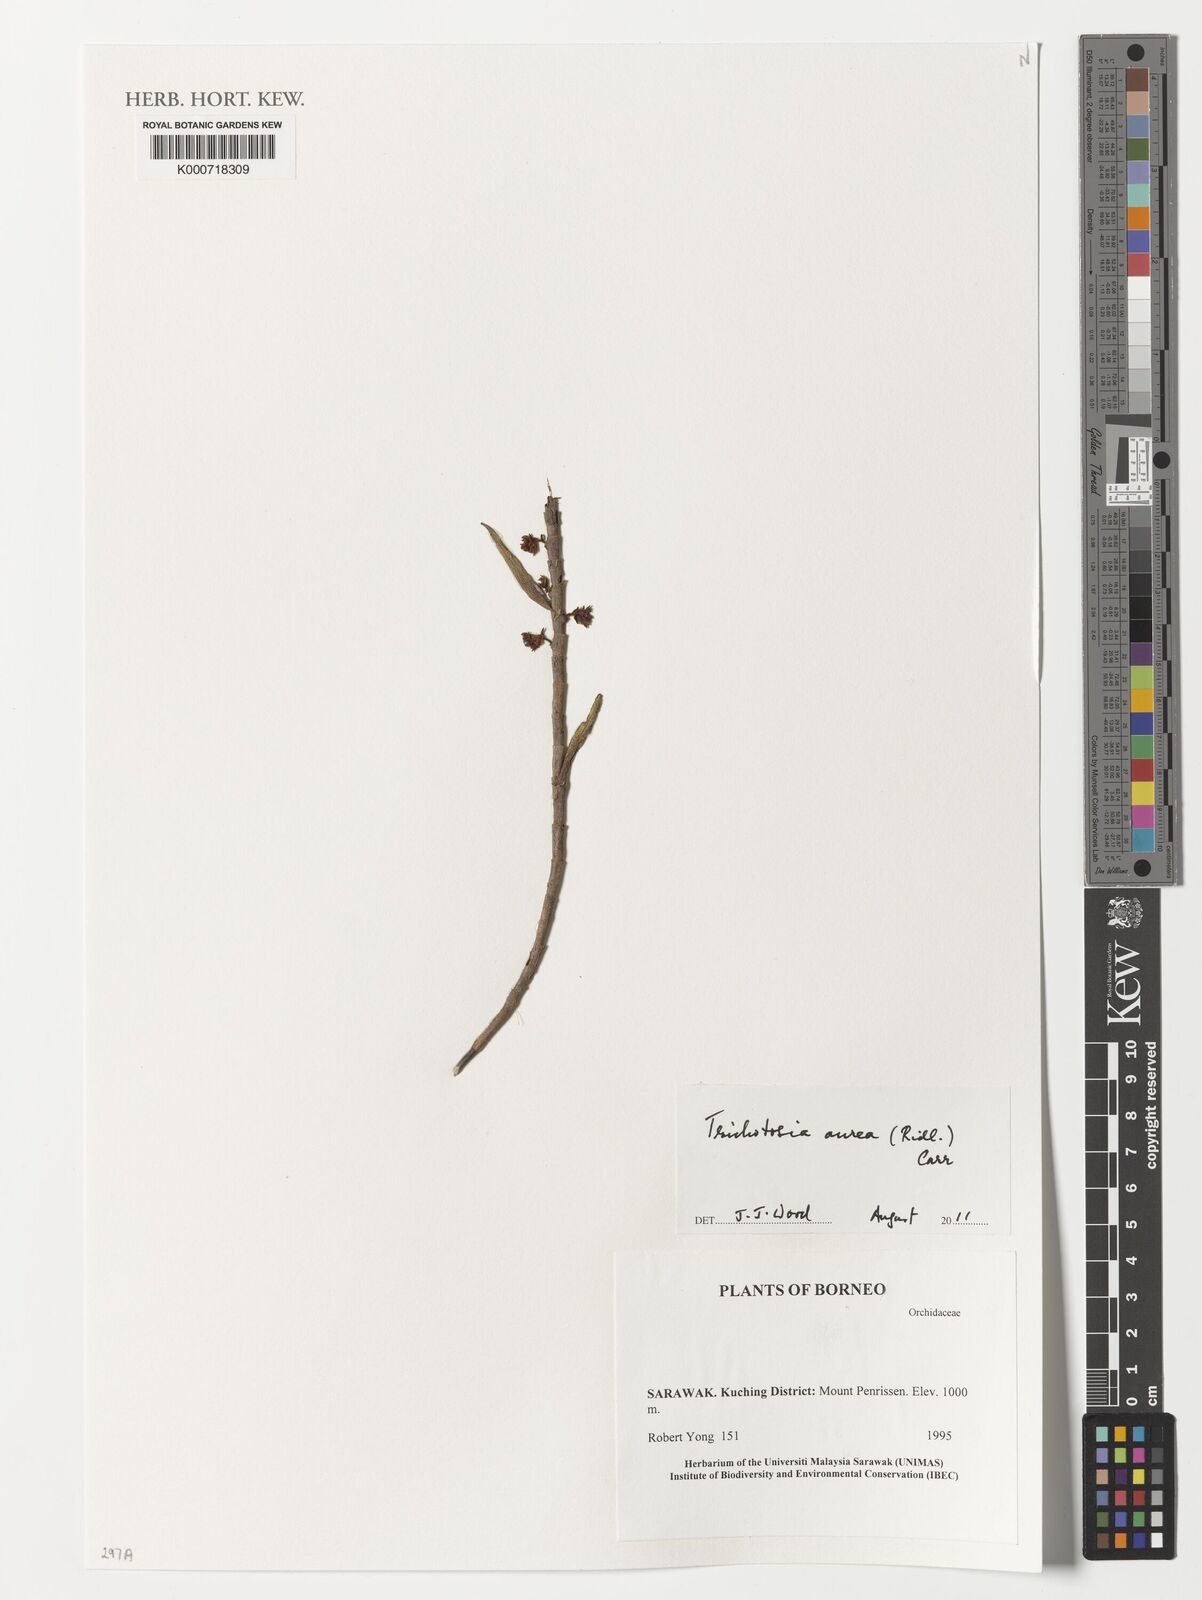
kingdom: Plantae
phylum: Tracheophyta
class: Liliopsida
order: Asparagales
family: Orchidaceae
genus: Trichotosia
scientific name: Trichotosia aurea
